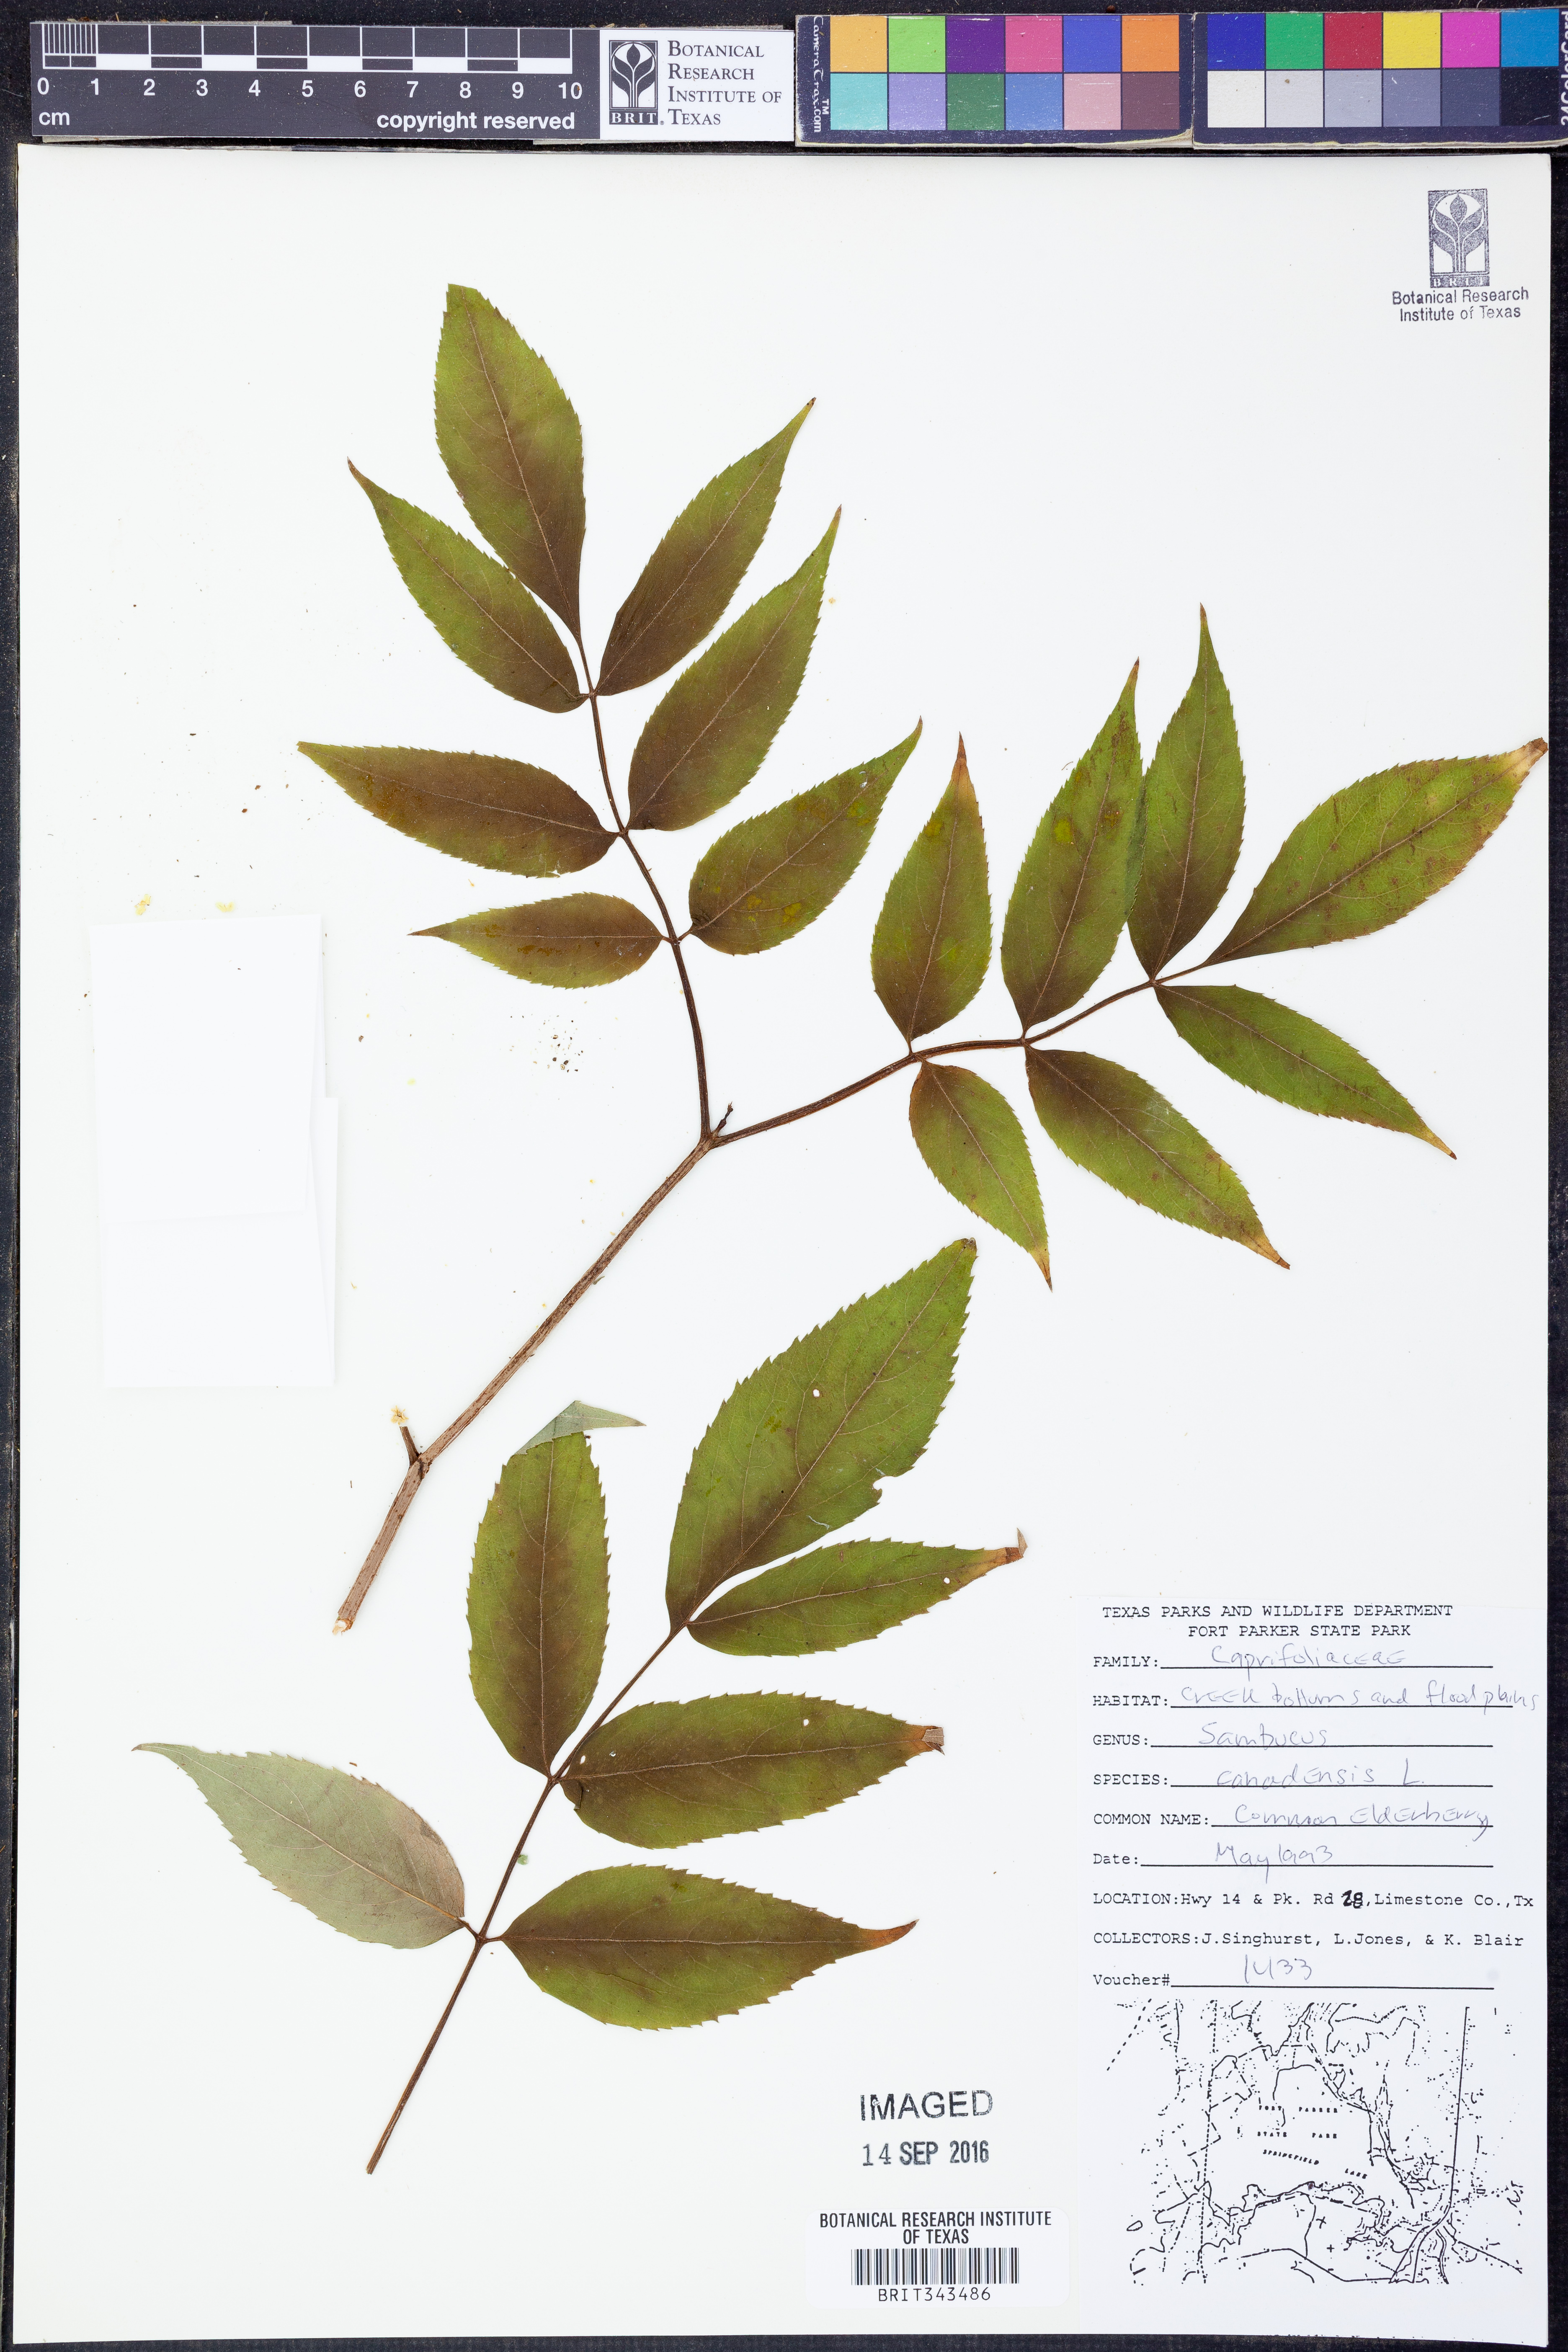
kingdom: Plantae
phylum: Tracheophyta
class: Magnoliopsida
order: Dipsacales
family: Viburnaceae
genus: Sambucus
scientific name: Sambucus canadensis
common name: American elder
